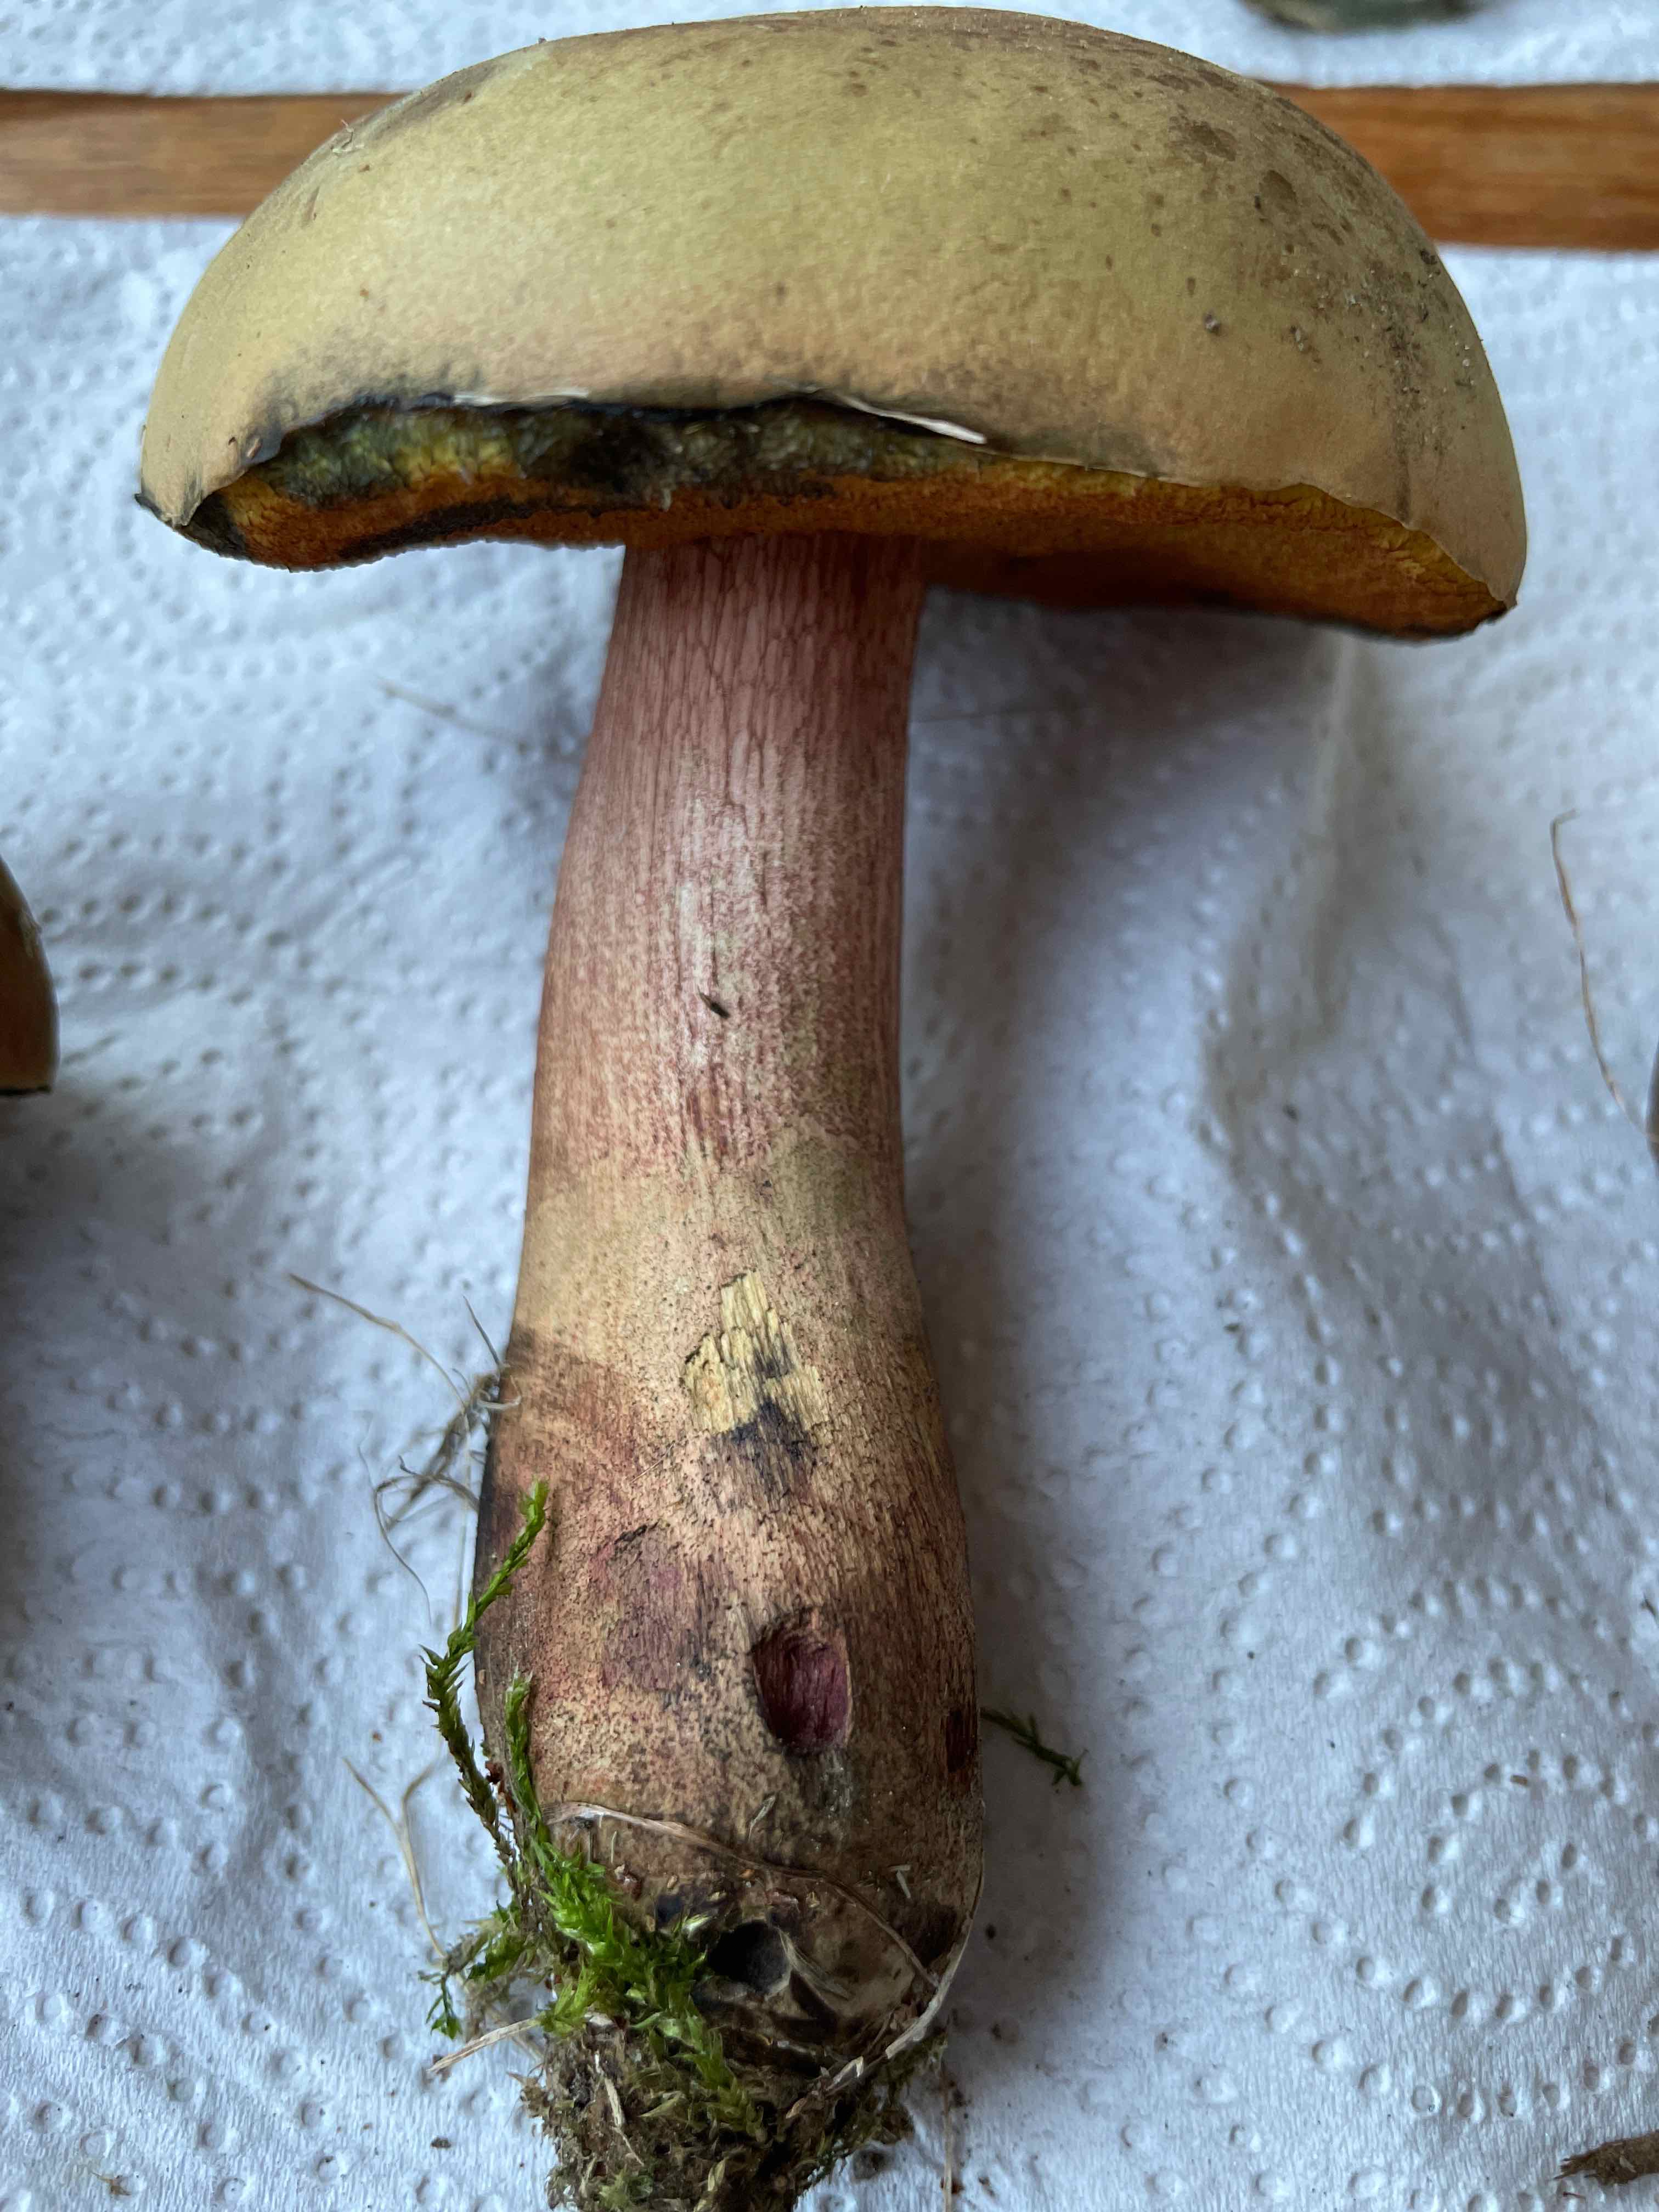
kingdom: Fungi
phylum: Basidiomycota
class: Agaricomycetes
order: Boletales
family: Boletaceae
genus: Suillellus
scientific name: Suillellus luridus
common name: netstokket indigorørhat
